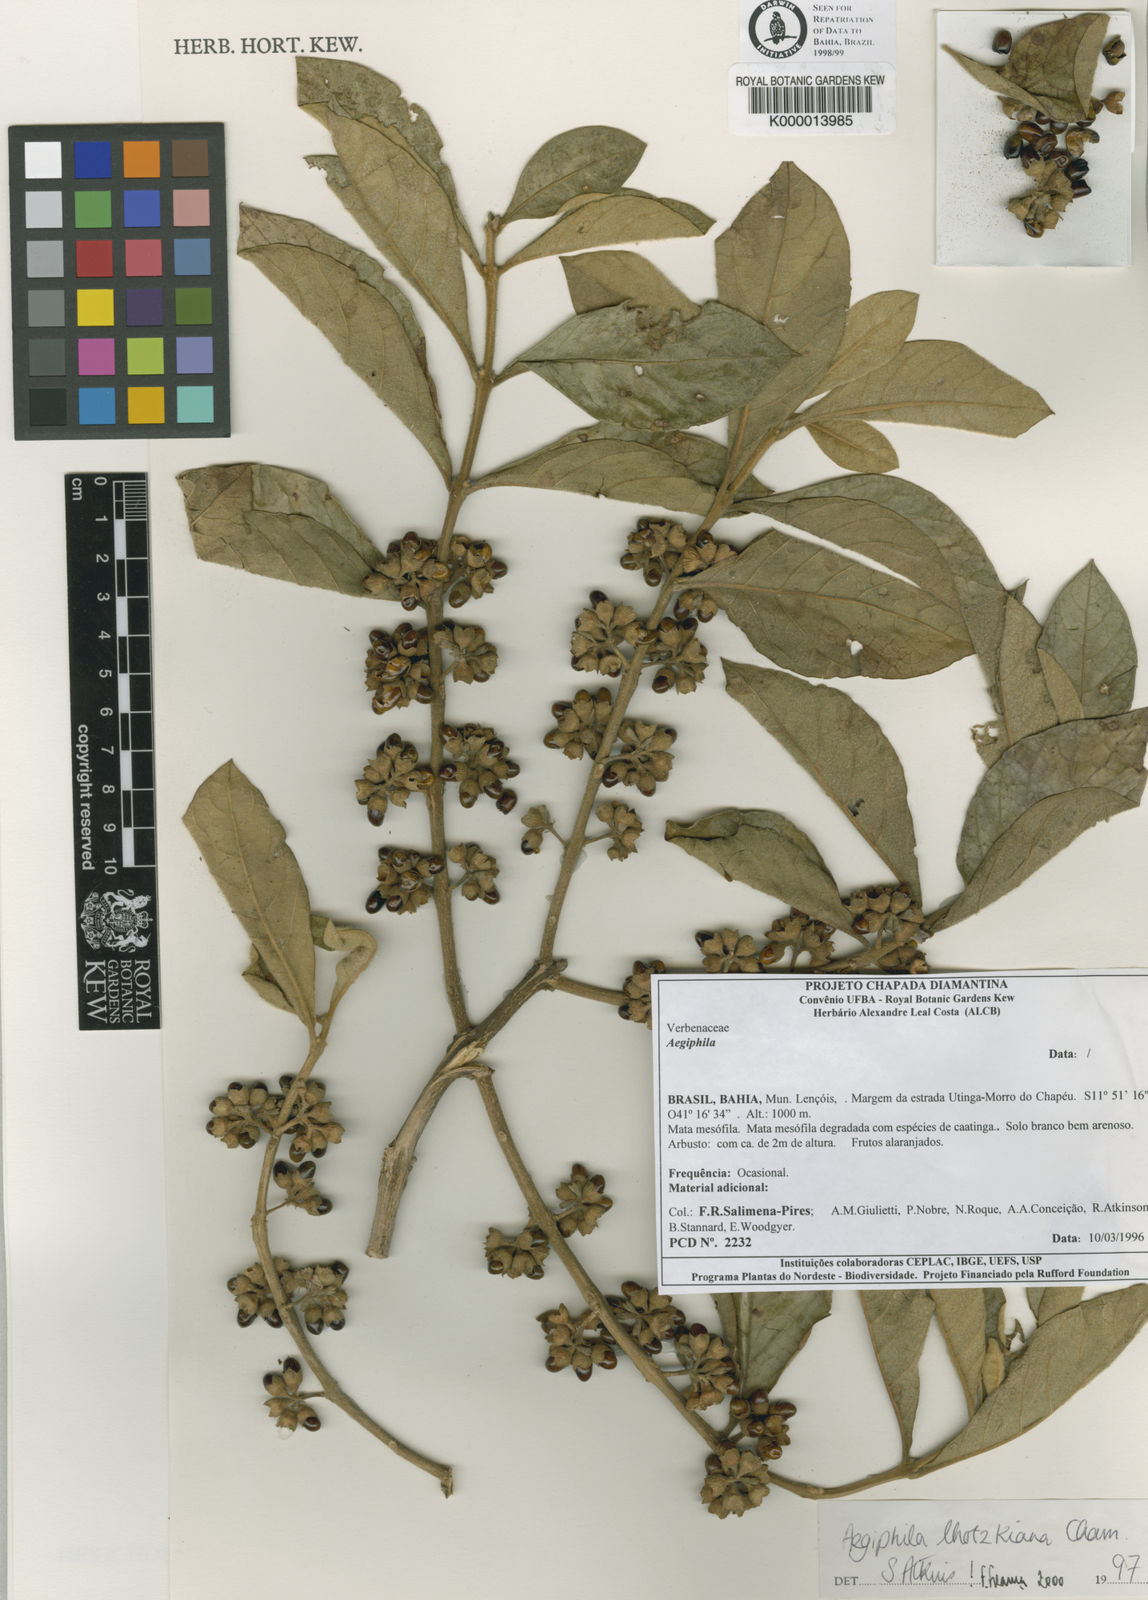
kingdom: Plantae
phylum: Tracheophyta
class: Magnoliopsida
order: Lamiales
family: Lamiaceae
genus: Aegiphila
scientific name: Aegiphila verticillata
